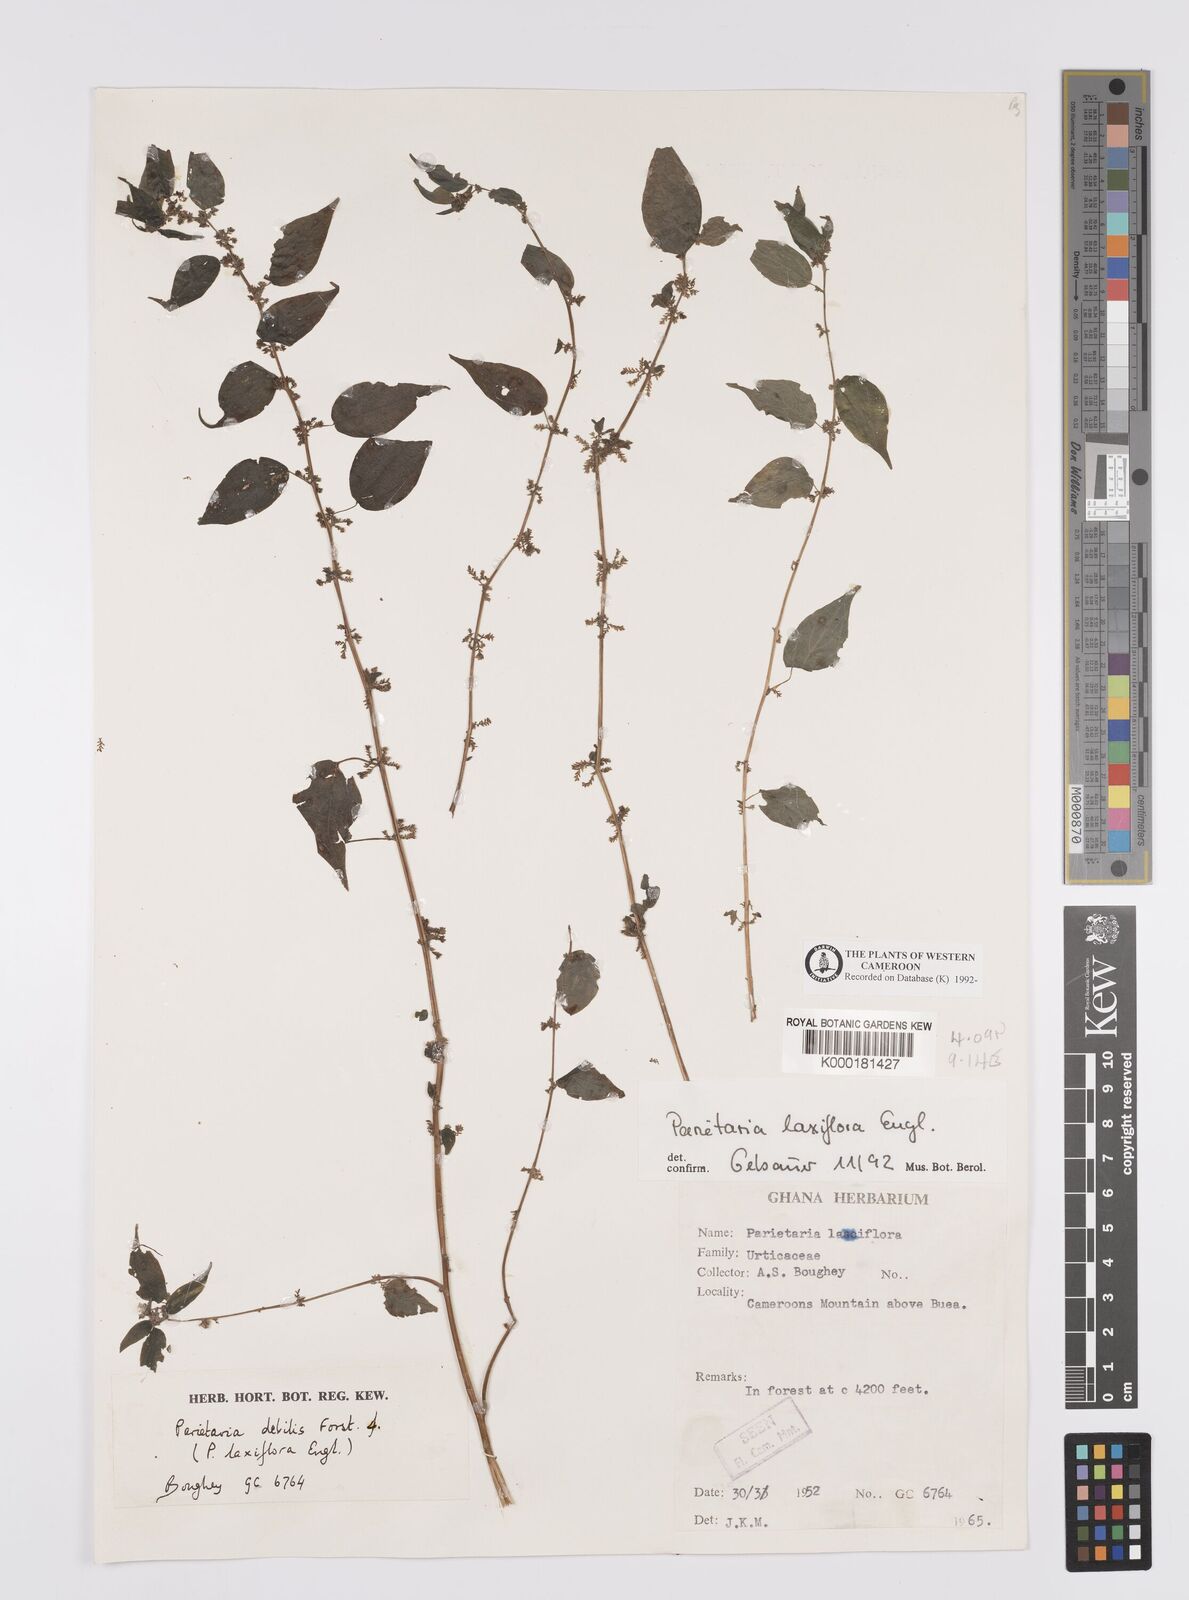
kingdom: Plantae
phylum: Tracheophyta
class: Magnoliopsida
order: Rosales
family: Urticaceae
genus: Parietaria
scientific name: Parietaria debilis
